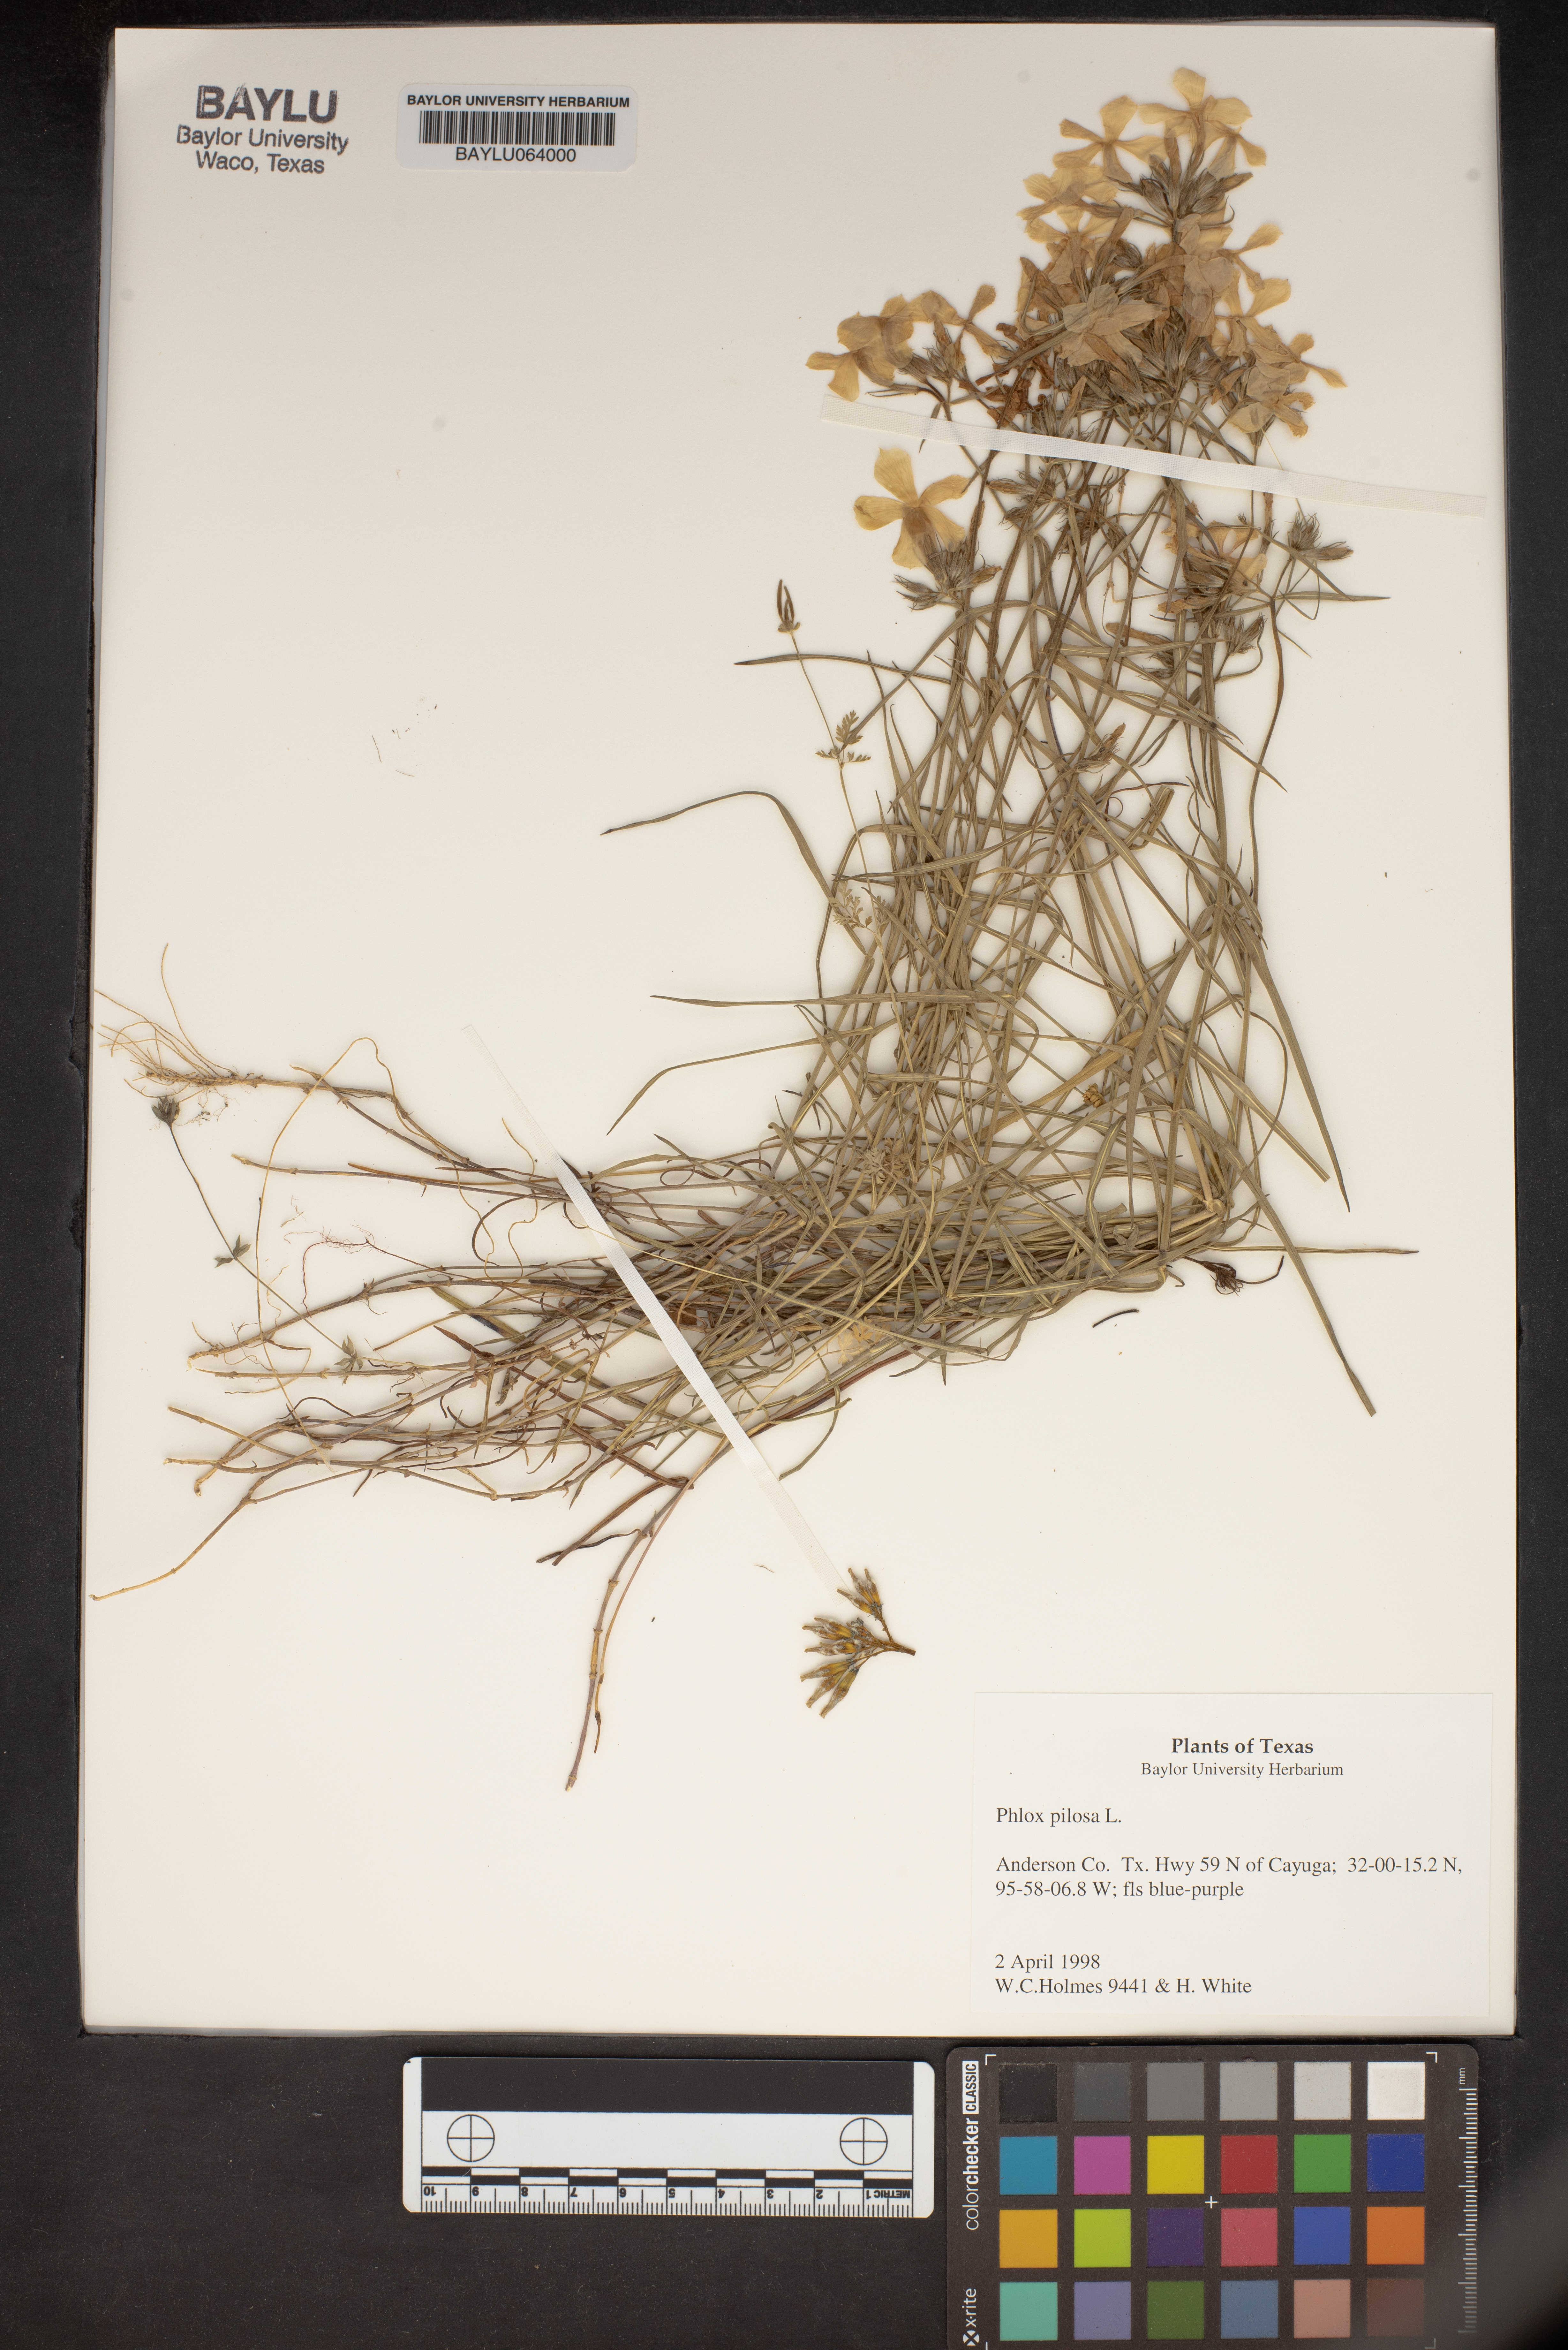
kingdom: Plantae
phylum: Tracheophyta
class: Magnoliopsida
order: Ericales
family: Polemoniaceae
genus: Phlox
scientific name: Phlox pilosa
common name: Prairie phlox
